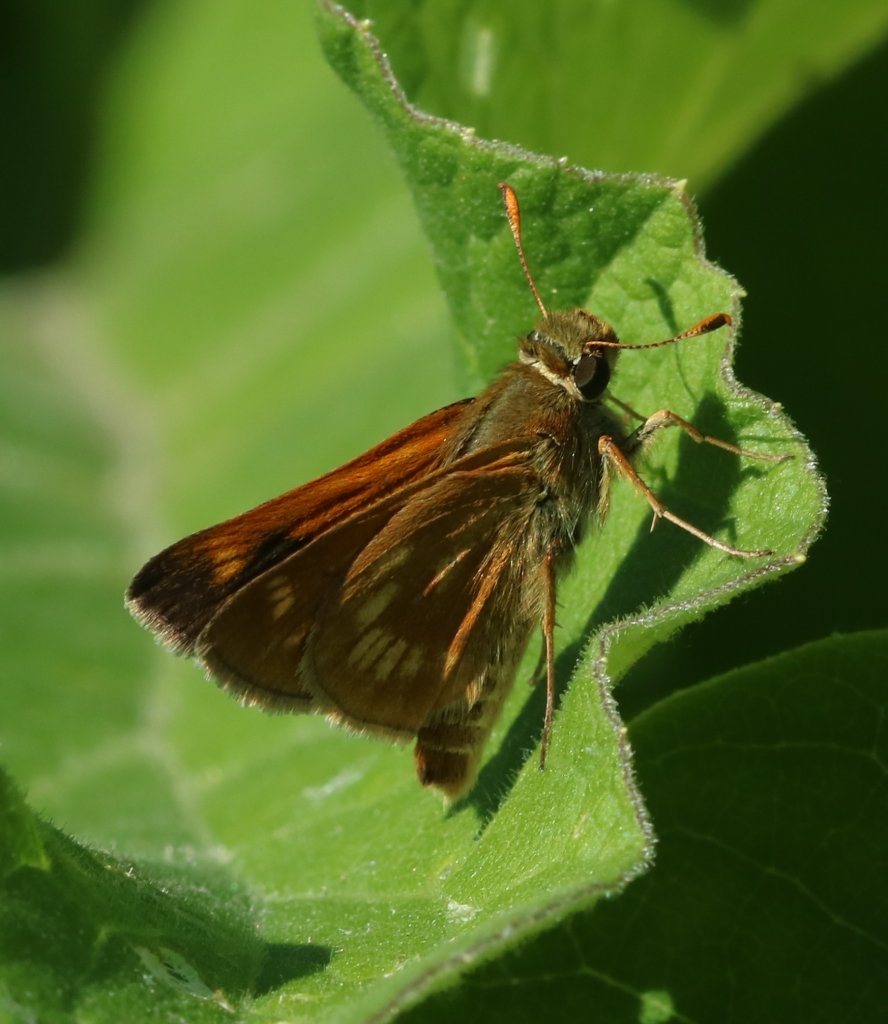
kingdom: Animalia
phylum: Arthropoda
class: Insecta
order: Lepidoptera
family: Hesperiidae
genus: Polites
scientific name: Polites
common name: Long Dash Skipper
